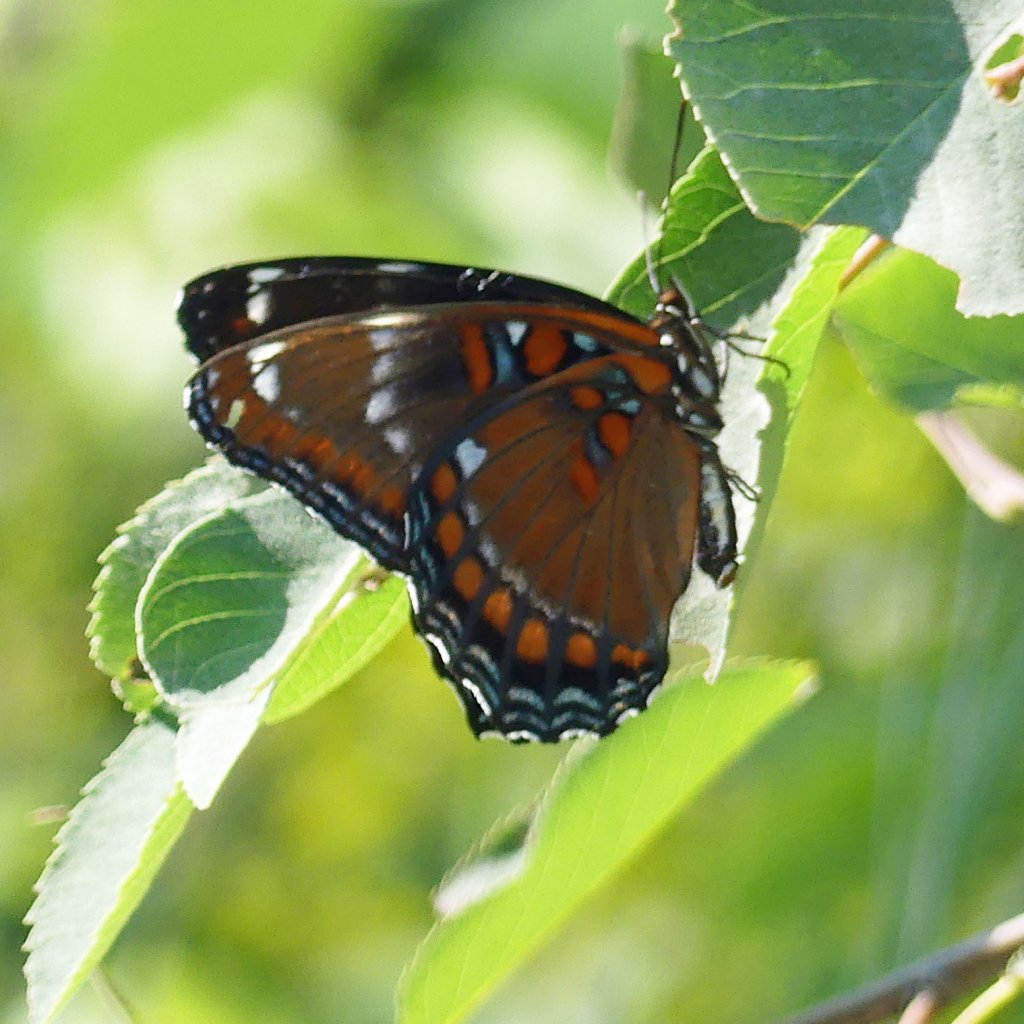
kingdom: Animalia
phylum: Arthropoda
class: Insecta
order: Lepidoptera
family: Nymphalidae
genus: Limenitis
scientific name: Limenitis
